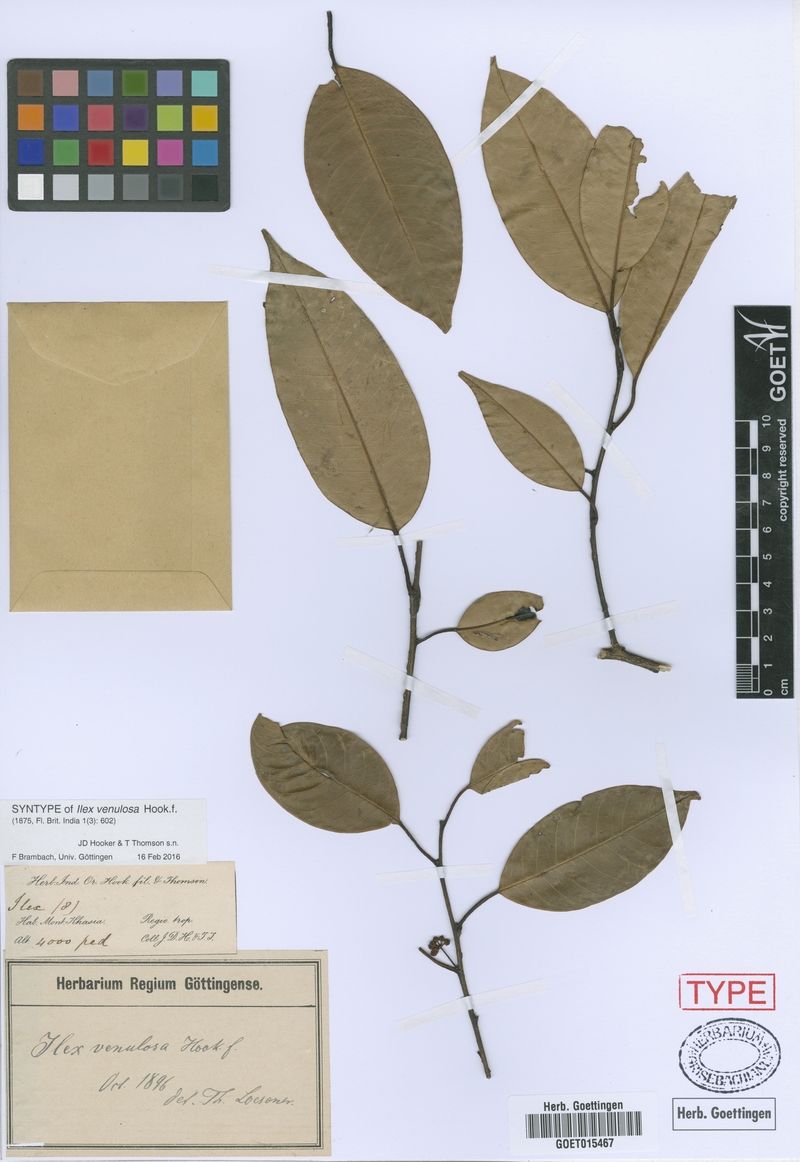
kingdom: Plantae
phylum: Tracheophyta
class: Magnoliopsida
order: Aquifoliales
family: Aquifoliaceae
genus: Ilex
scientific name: Ilex venulosa
